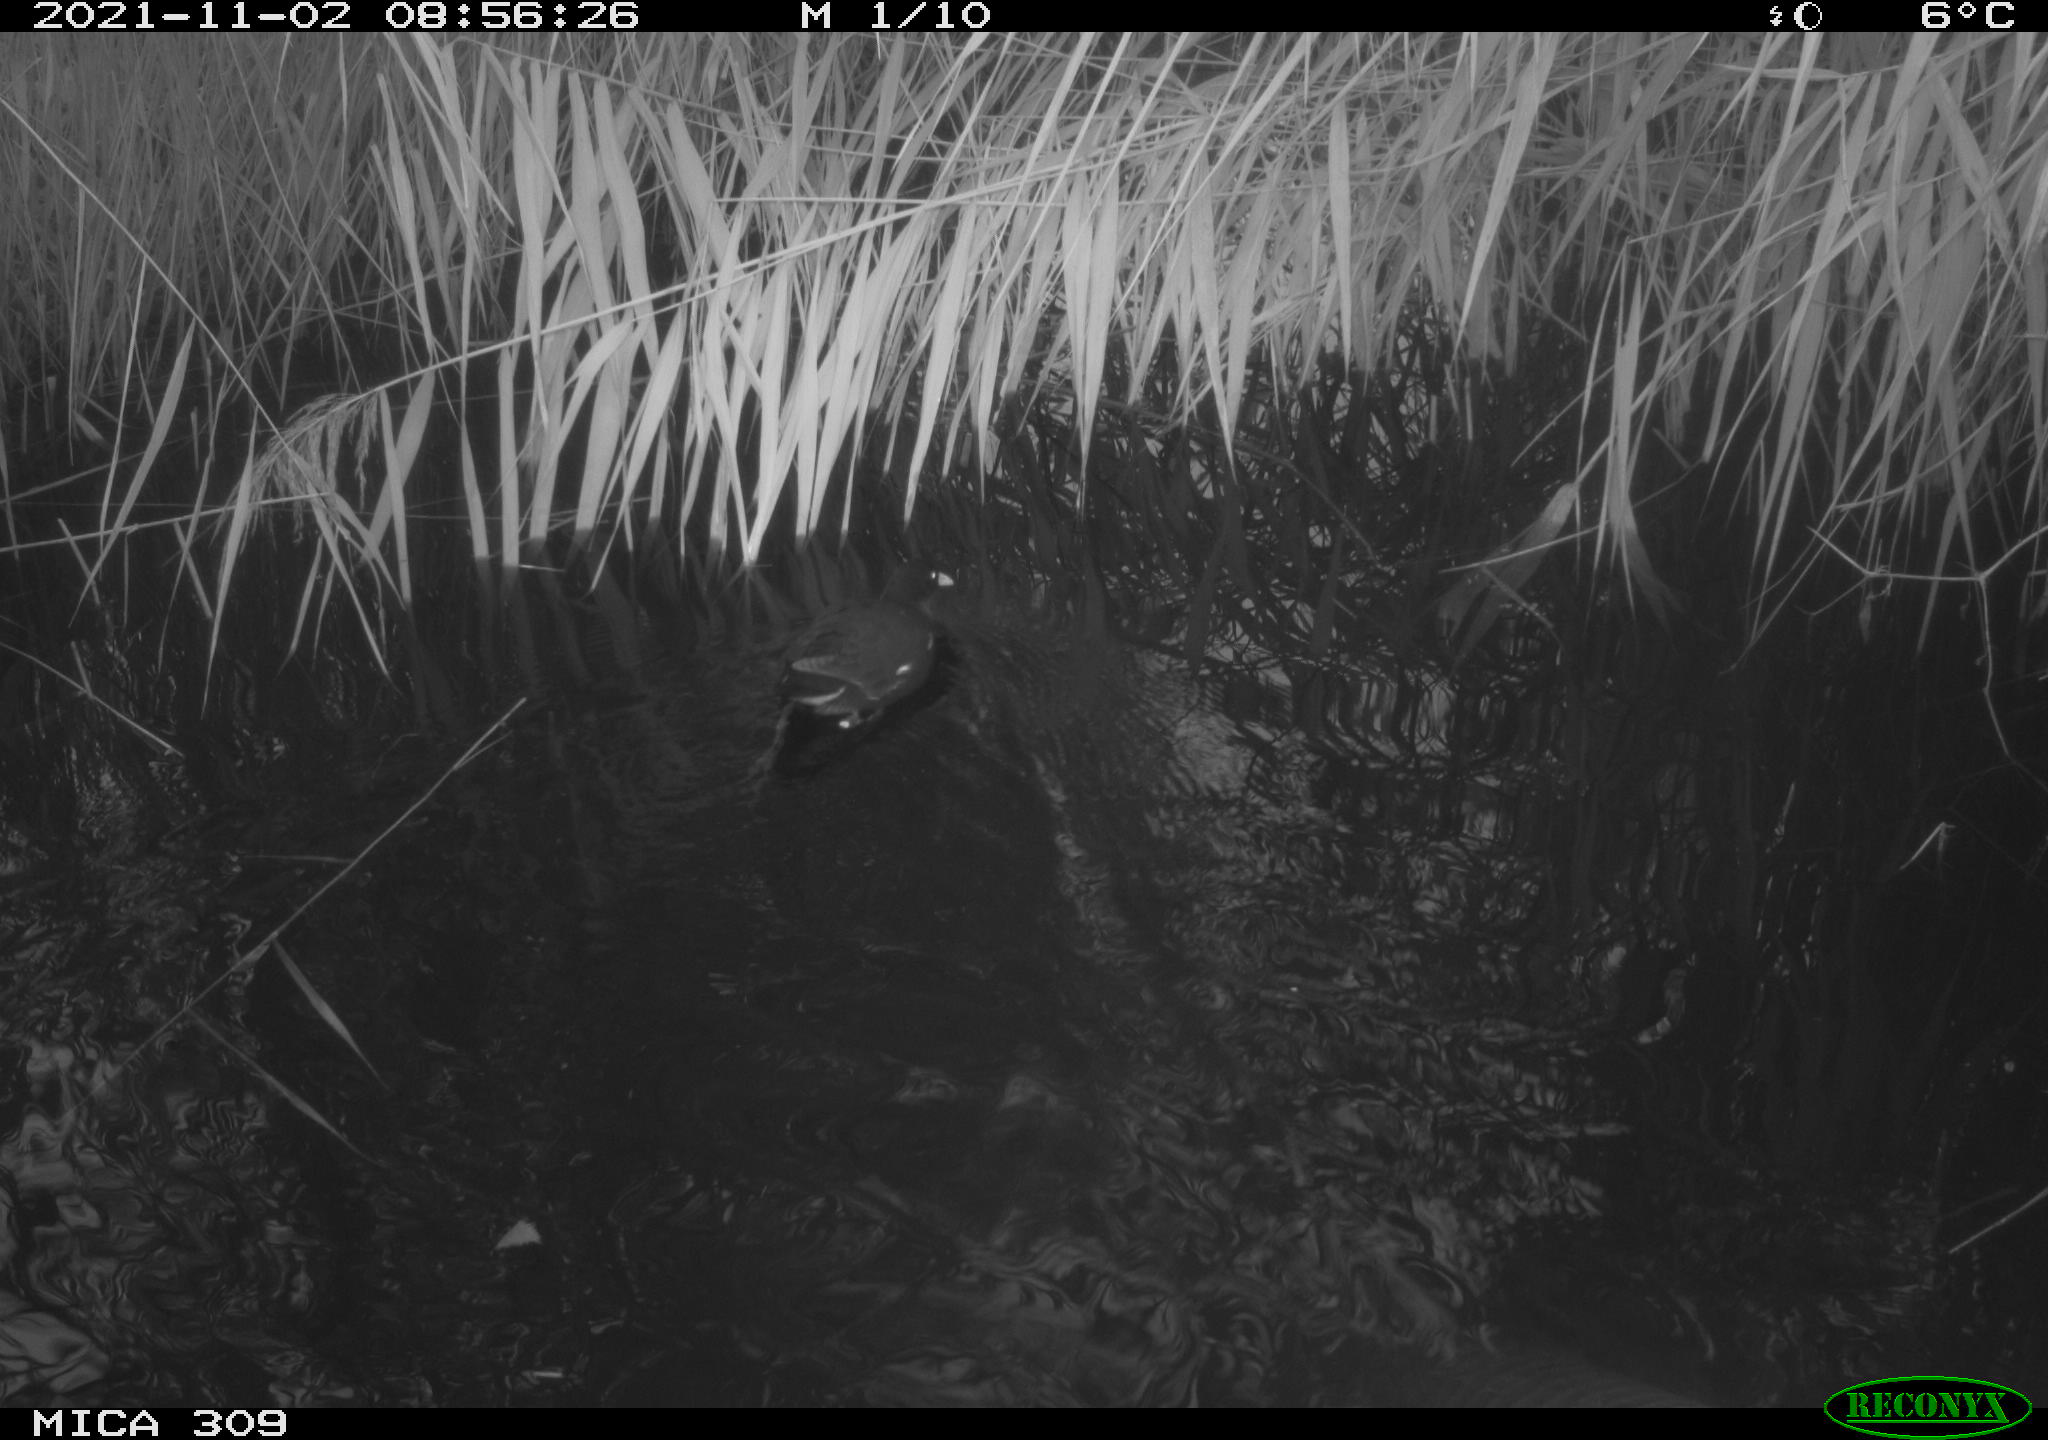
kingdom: Animalia
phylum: Chordata
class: Aves
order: Gruiformes
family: Rallidae
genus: Gallinula
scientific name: Gallinula chloropus
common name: Common moorhen
